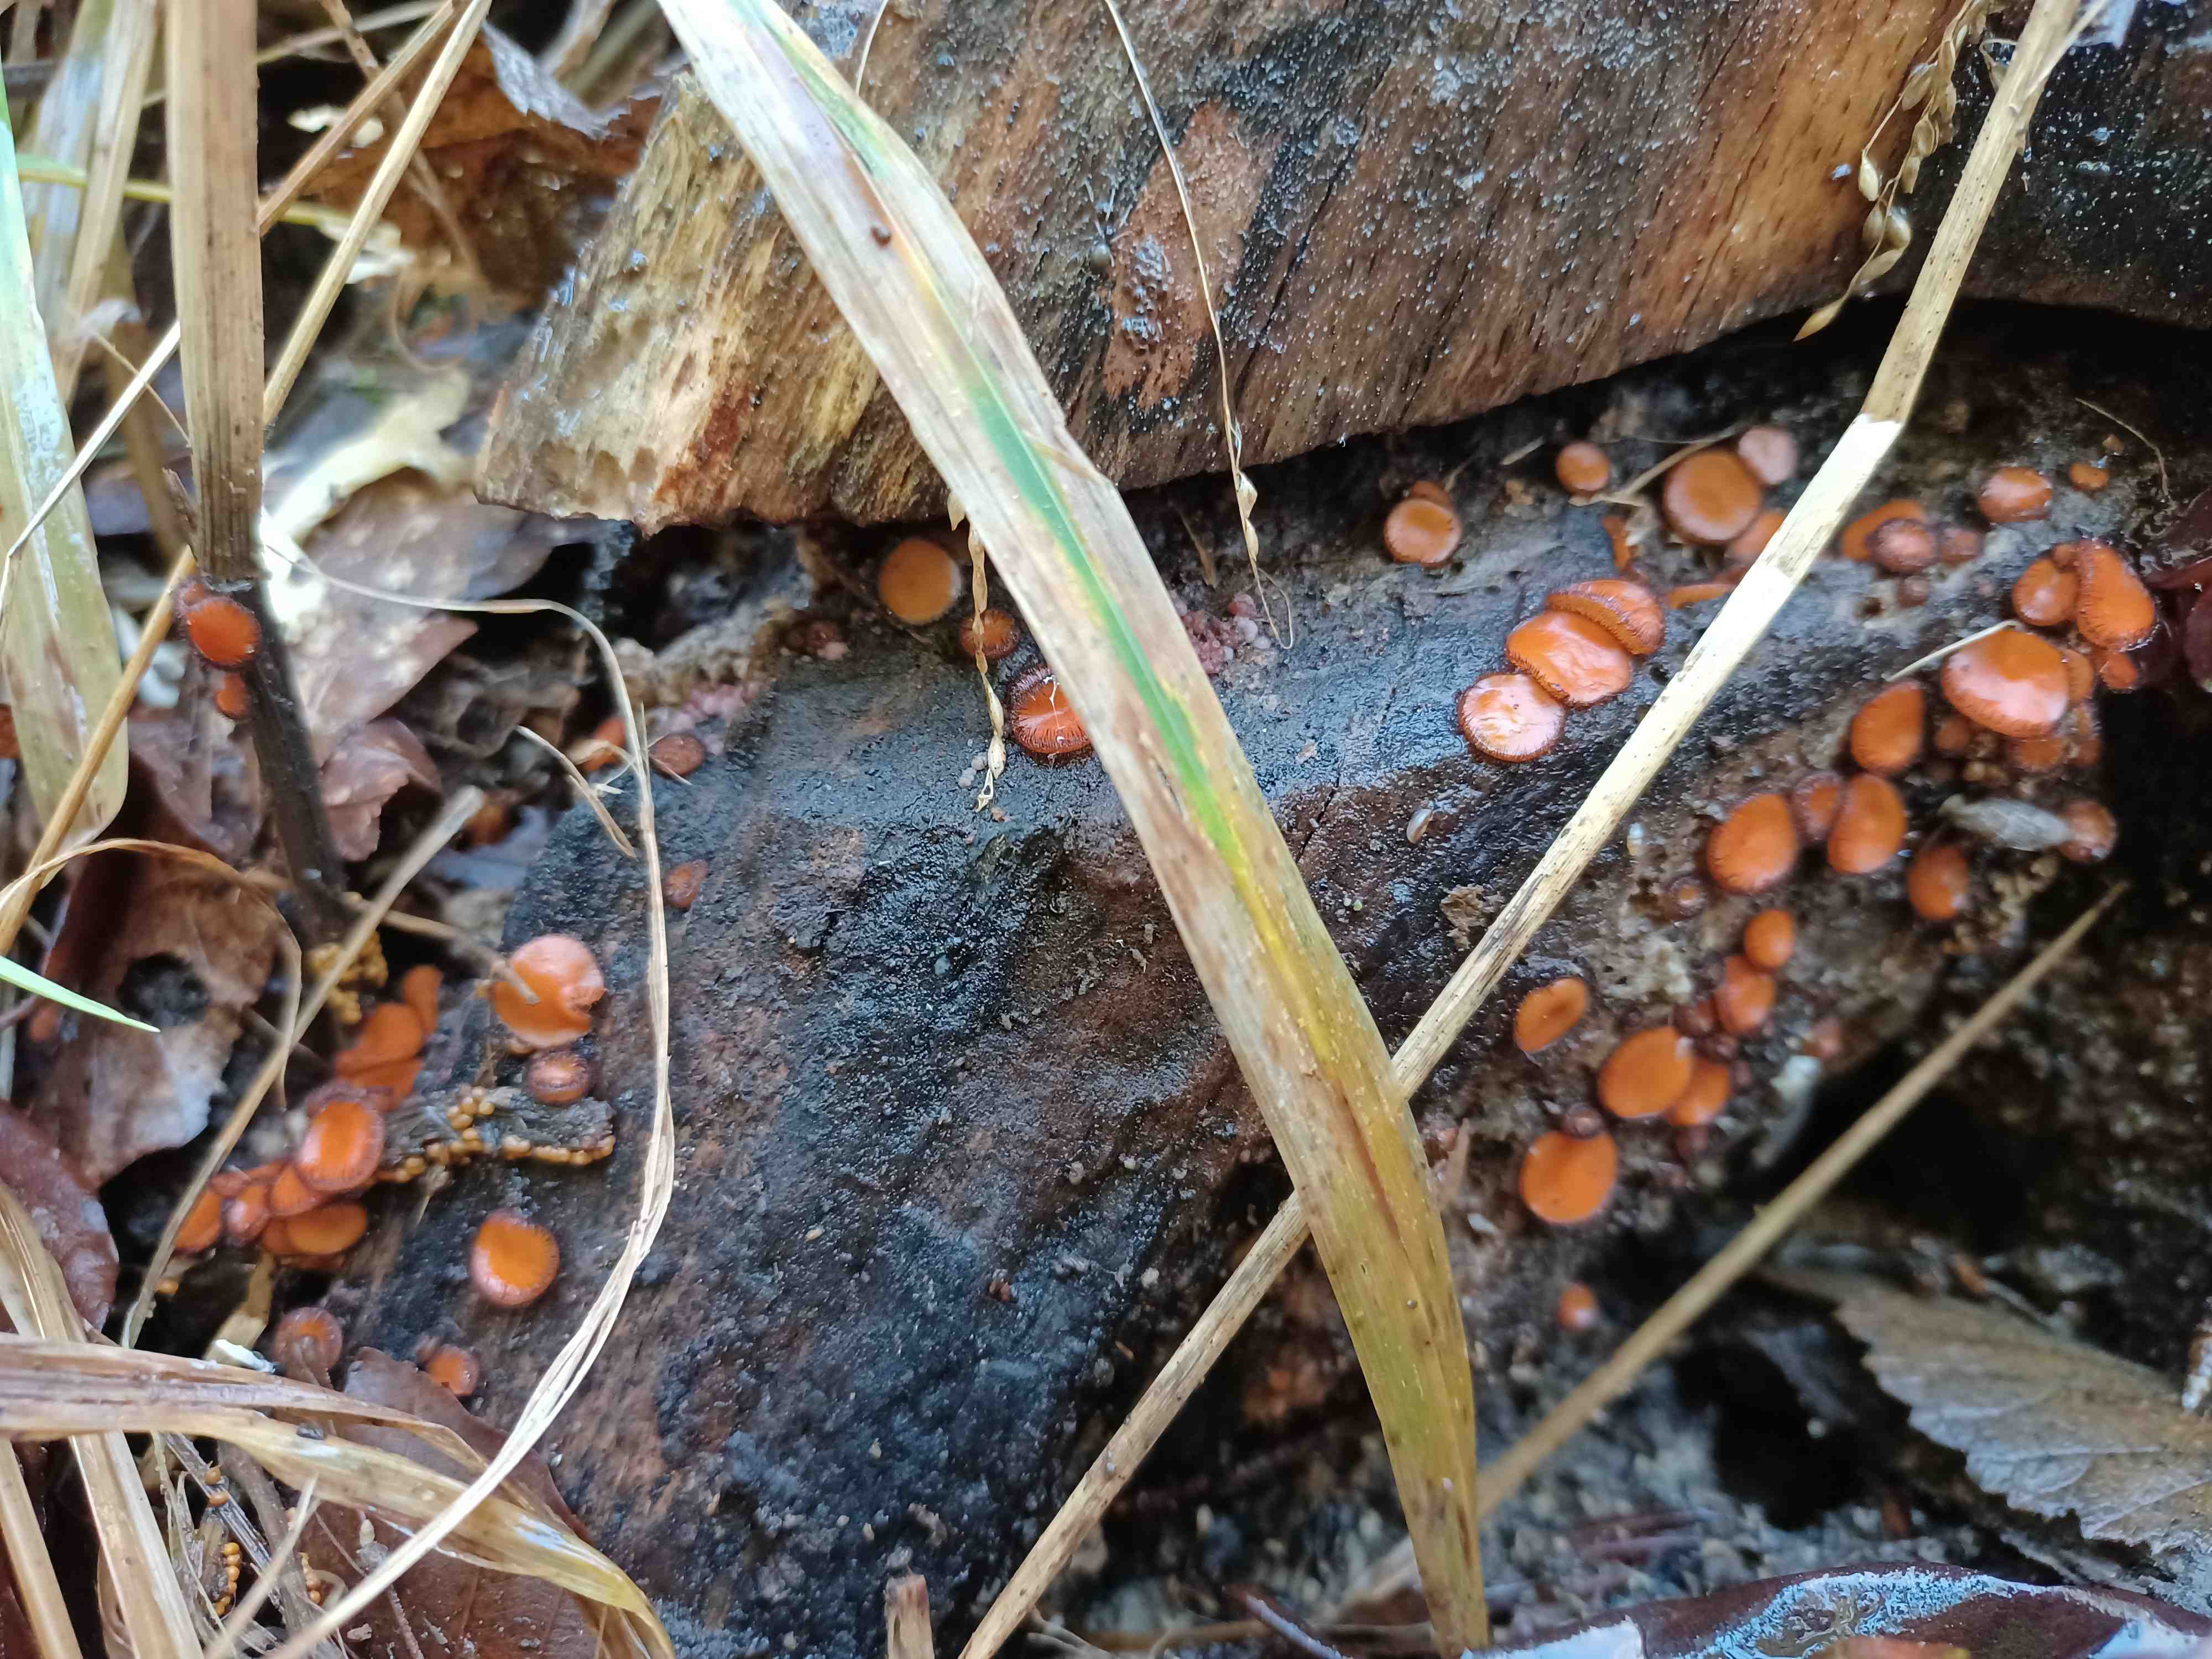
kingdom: Fungi
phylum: Ascomycota
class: Pezizomycetes
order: Pezizales
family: Pyronemataceae
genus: Scutellinia
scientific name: Scutellinia
